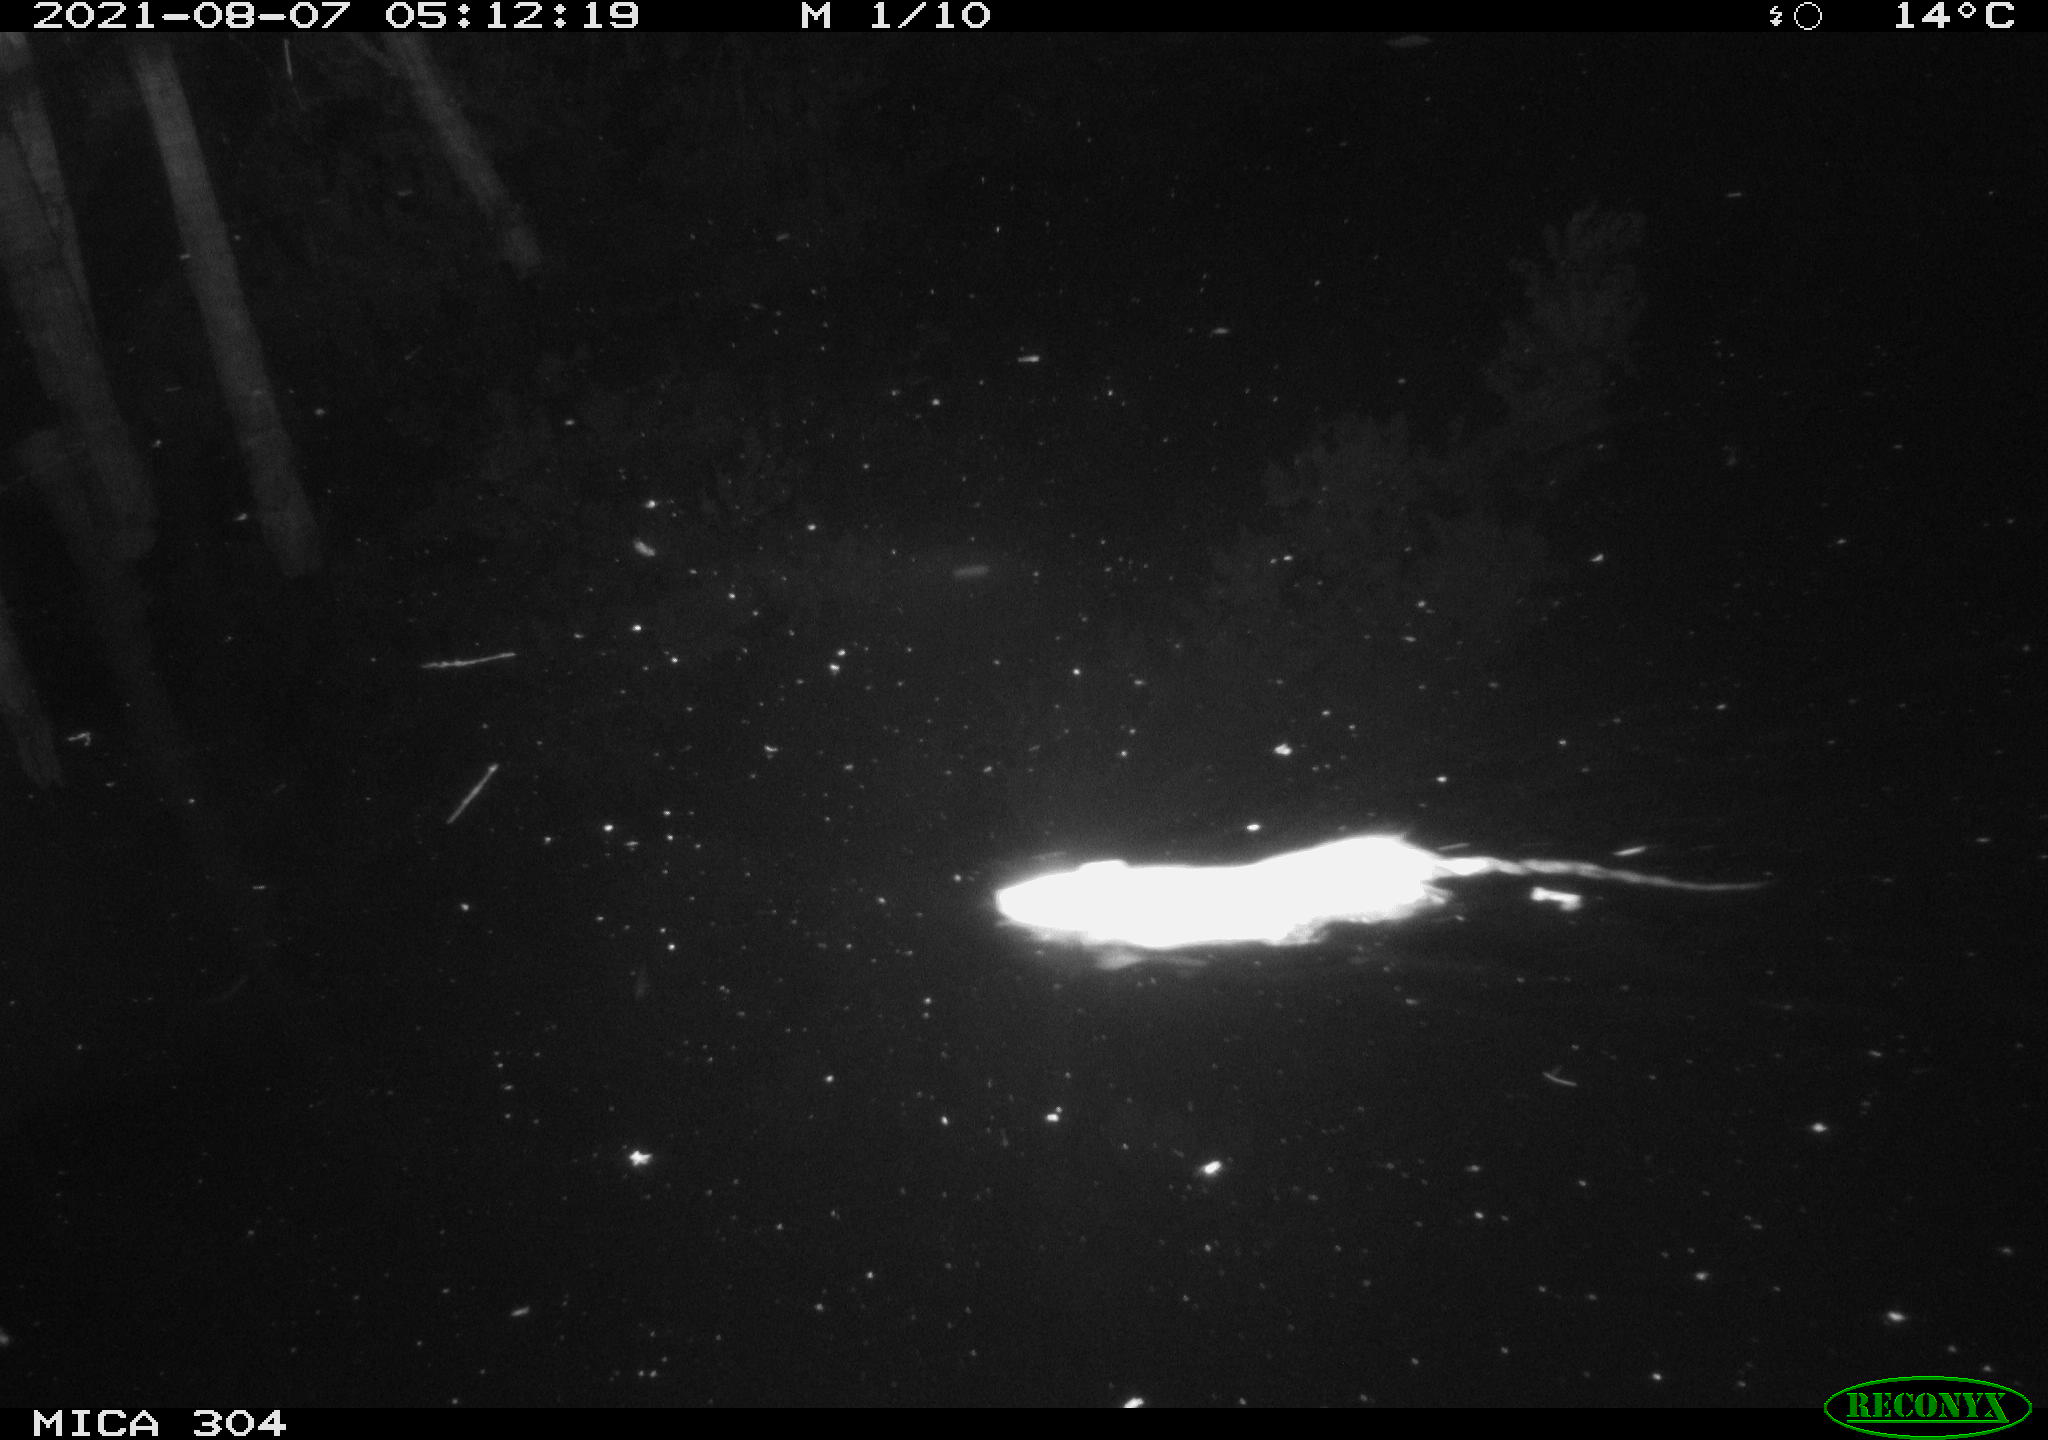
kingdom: Animalia
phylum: Chordata
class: Mammalia
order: Rodentia
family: Muridae
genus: Rattus
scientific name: Rattus norvegicus
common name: Brown rat
